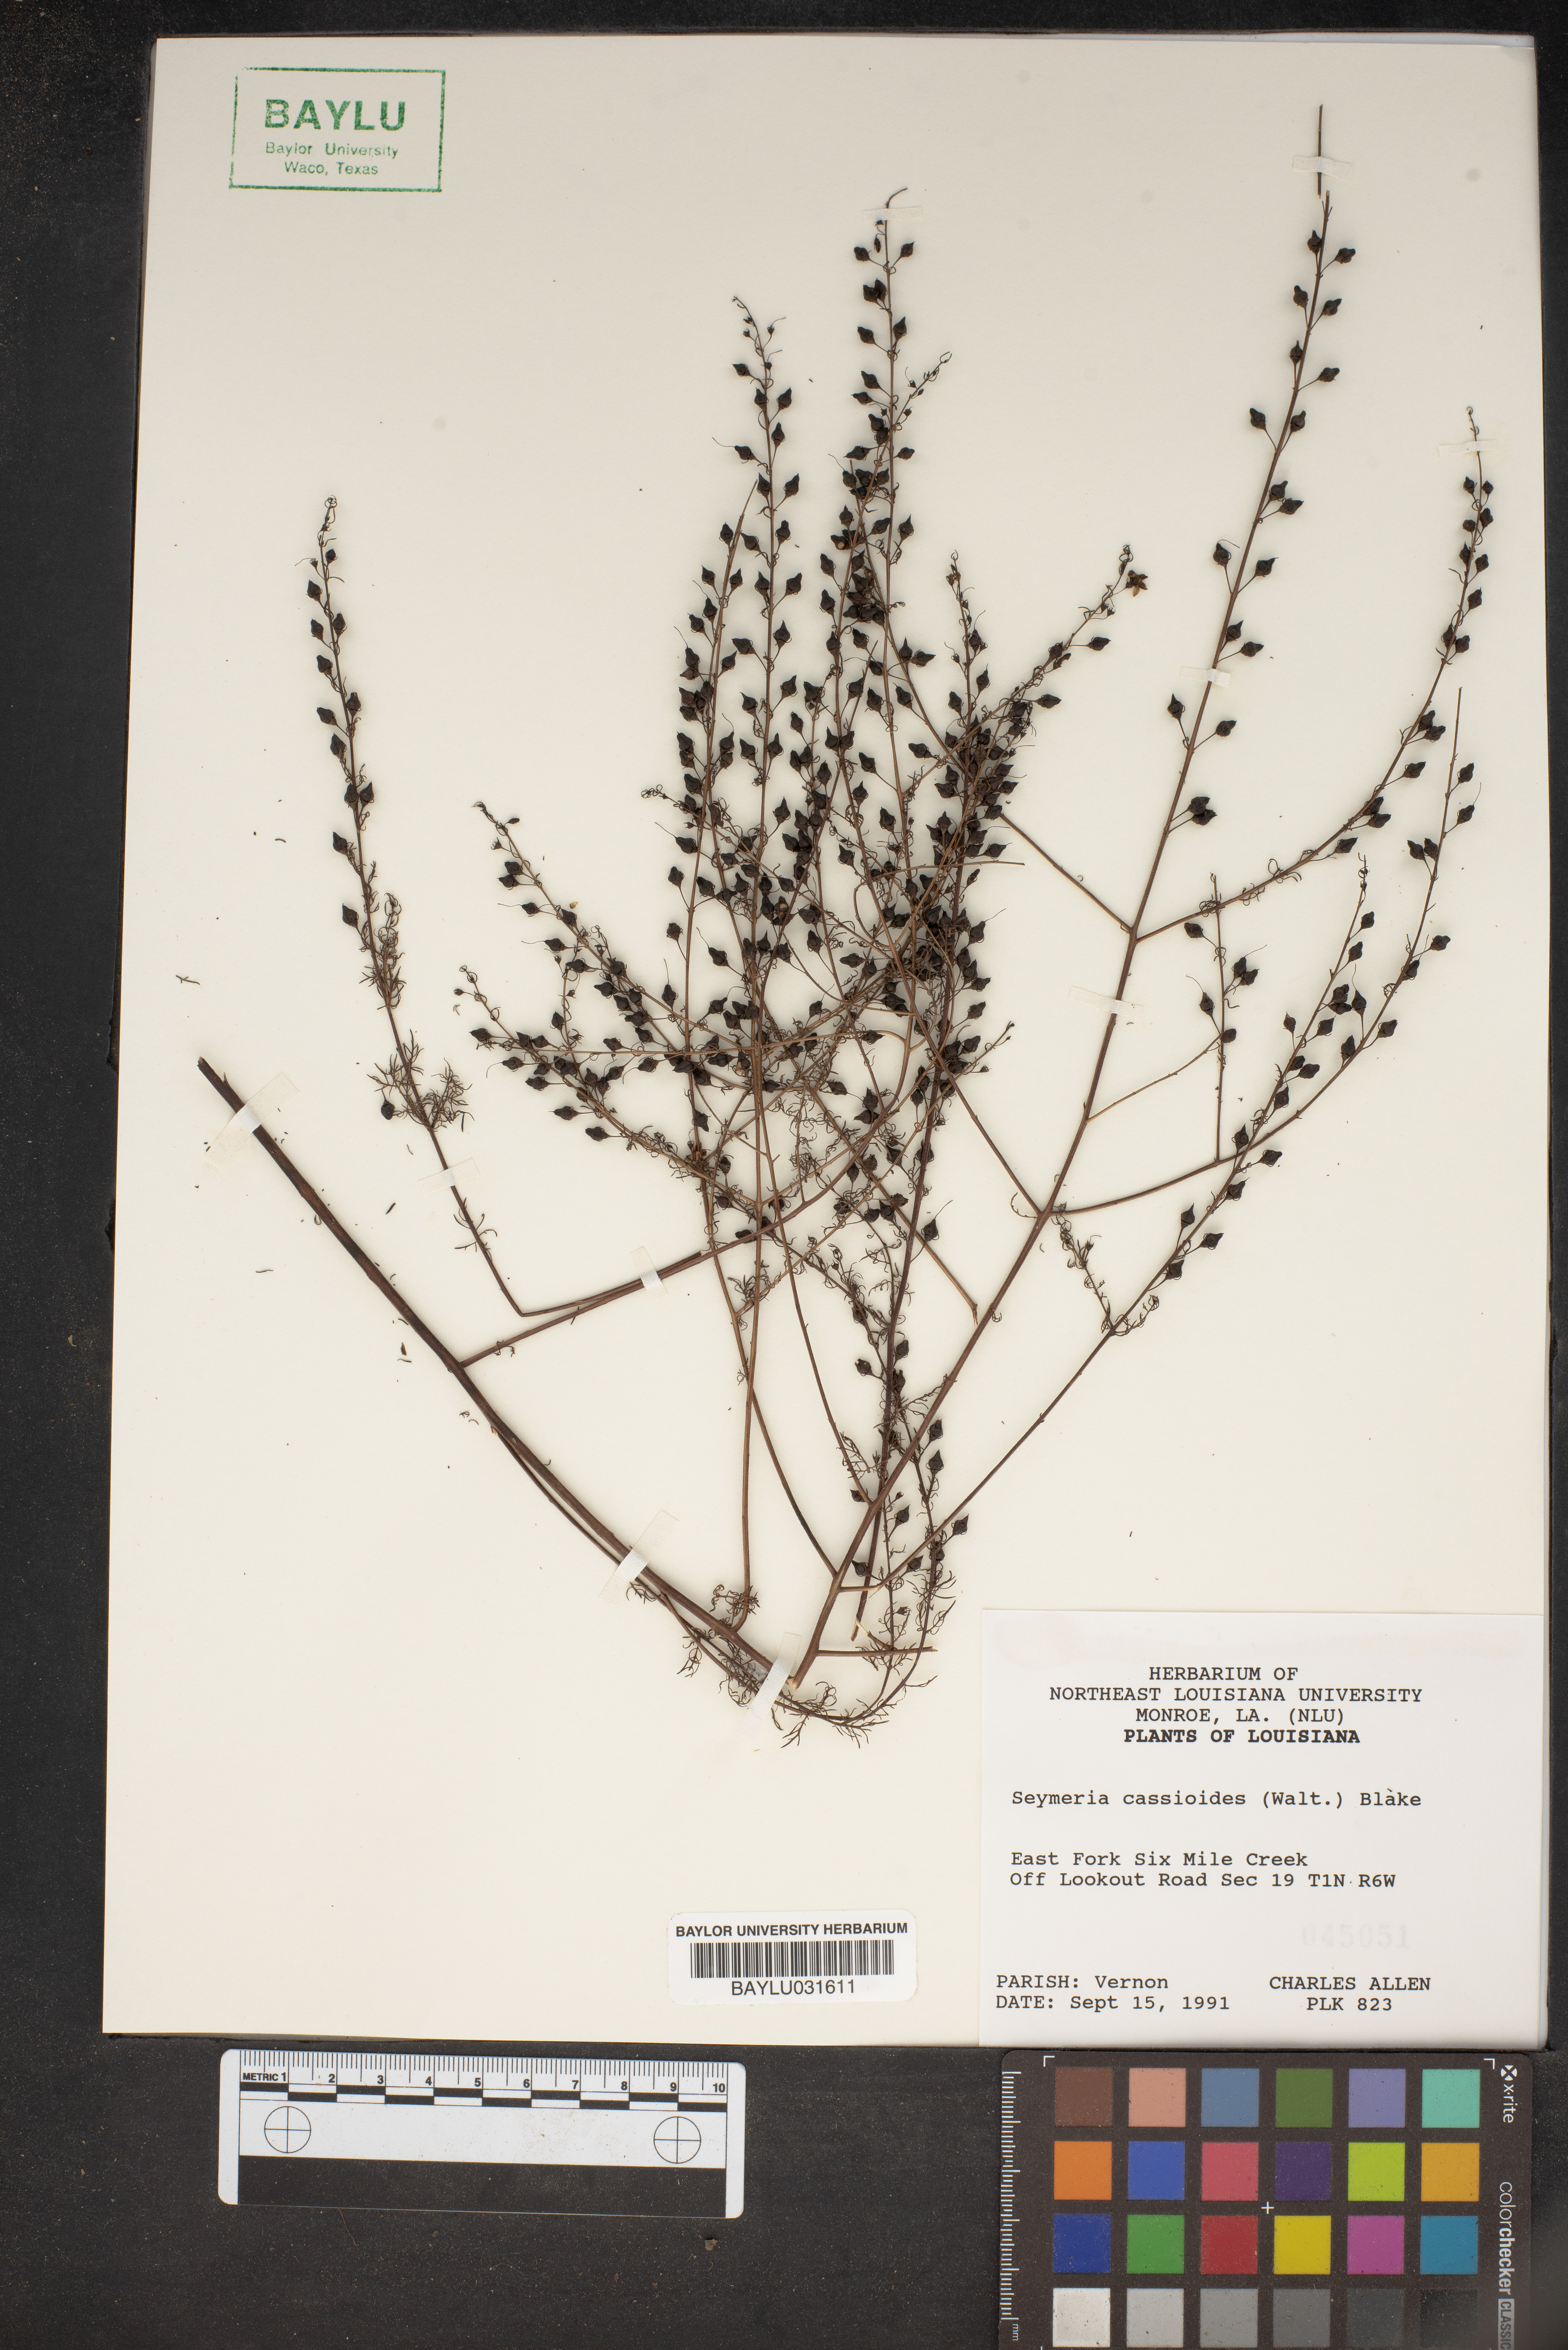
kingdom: Plantae
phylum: Tracheophyta
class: Magnoliopsida
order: Lamiales
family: Orobanchaceae
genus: Seymeria
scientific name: Seymeria cassioides
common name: Yaupon black-senna
